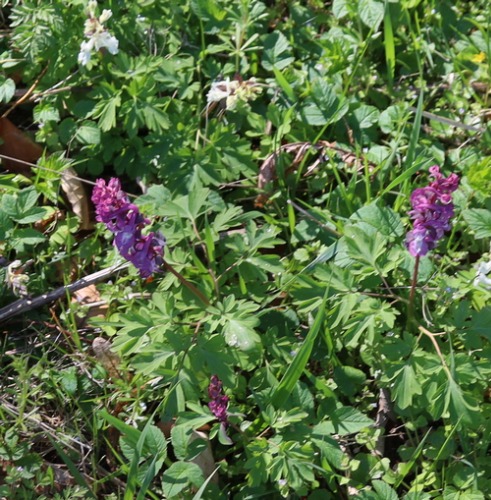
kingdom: Plantae
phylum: Tracheophyta
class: Magnoliopsida
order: Ranunculales
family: Papaveraceae
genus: Corydalis
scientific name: Corydalis cava
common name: Hulrodet lærkespore
